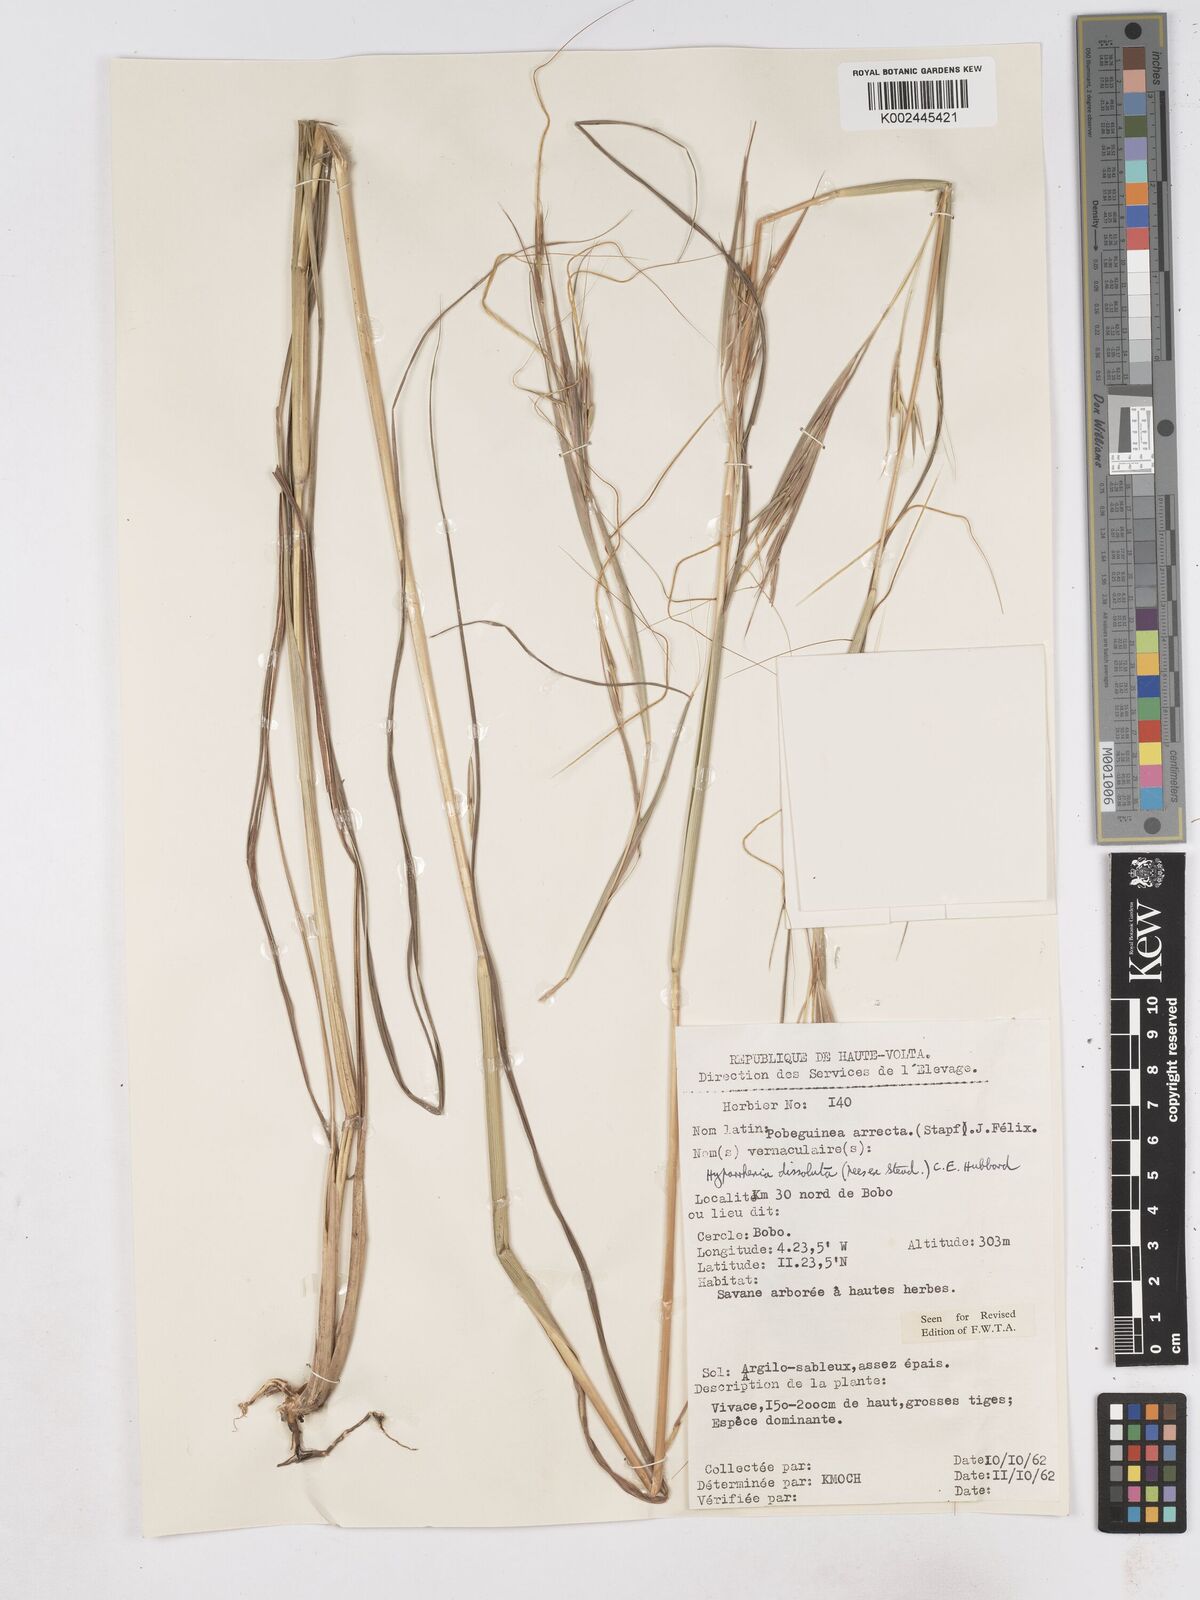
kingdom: Plantae
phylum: Tracheophyta
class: Liliopsida
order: Poales
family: Poaceae
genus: Hyperthelia
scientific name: Hyperthelia dissoluta
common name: Yellow thatching grass
